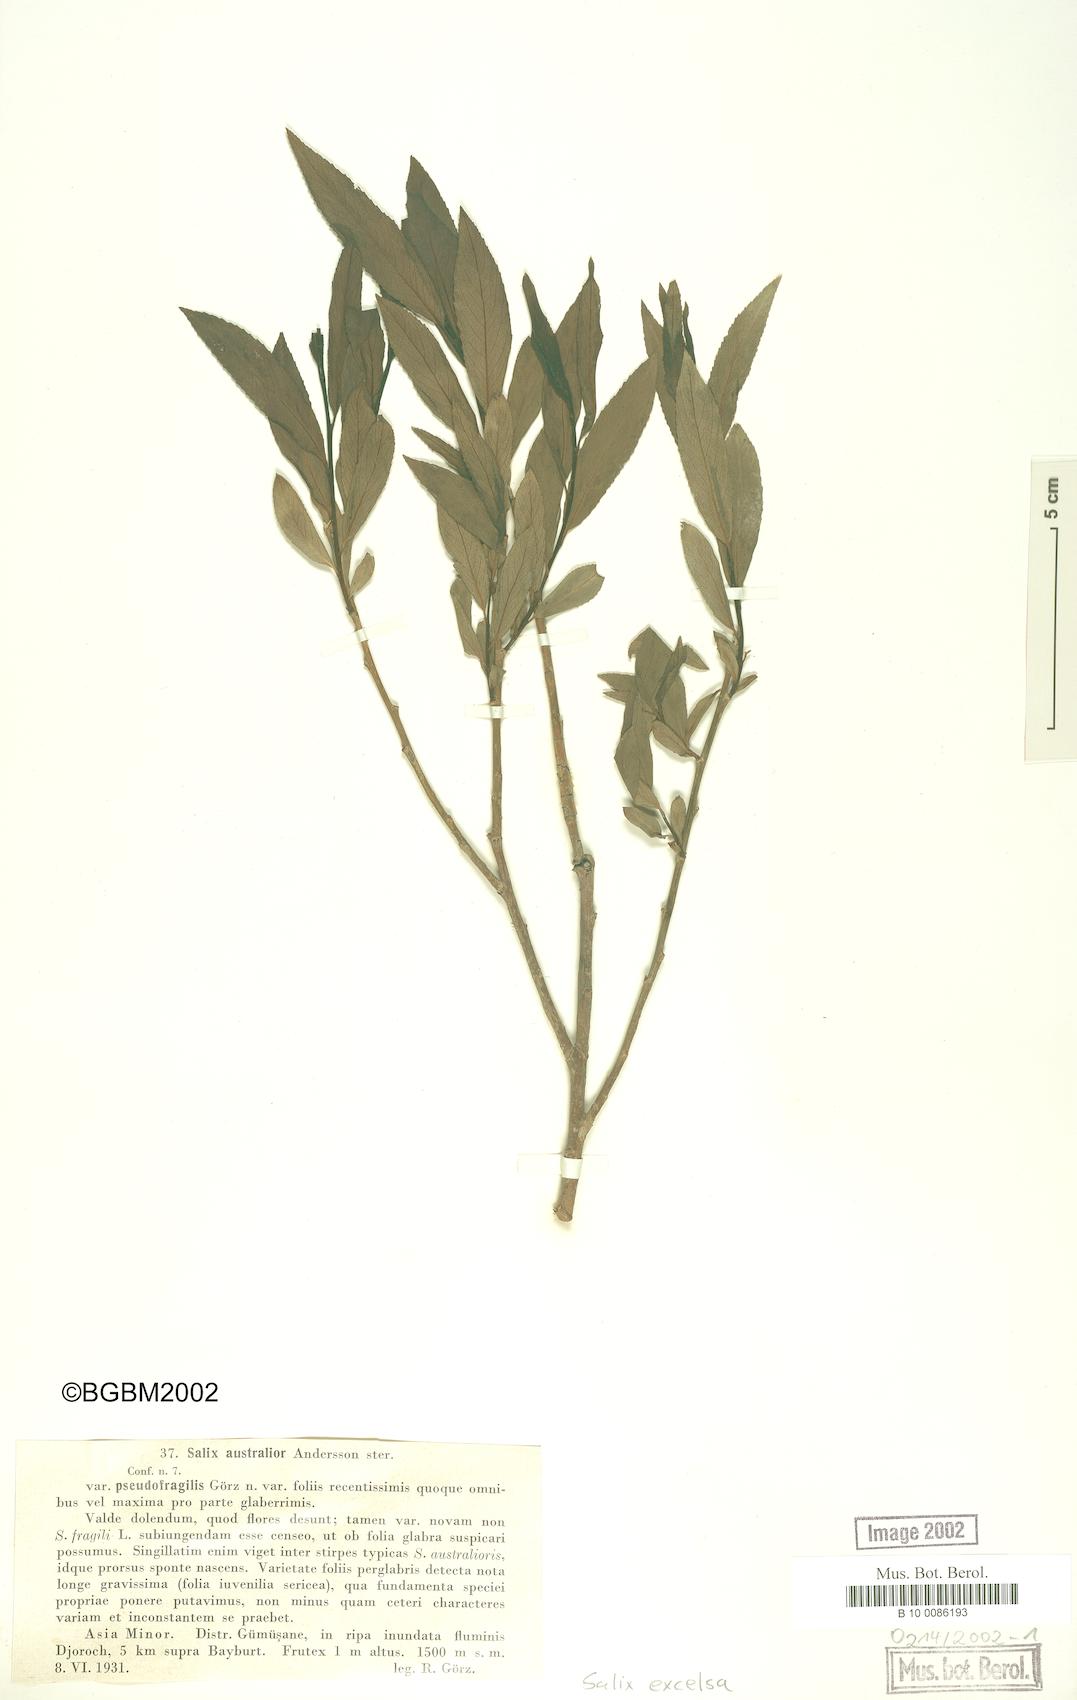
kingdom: Plantae
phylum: Tracheophyta
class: Magnoliopsida
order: Malpighiales
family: Salicaceae
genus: Salix
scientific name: Salix excelsa
